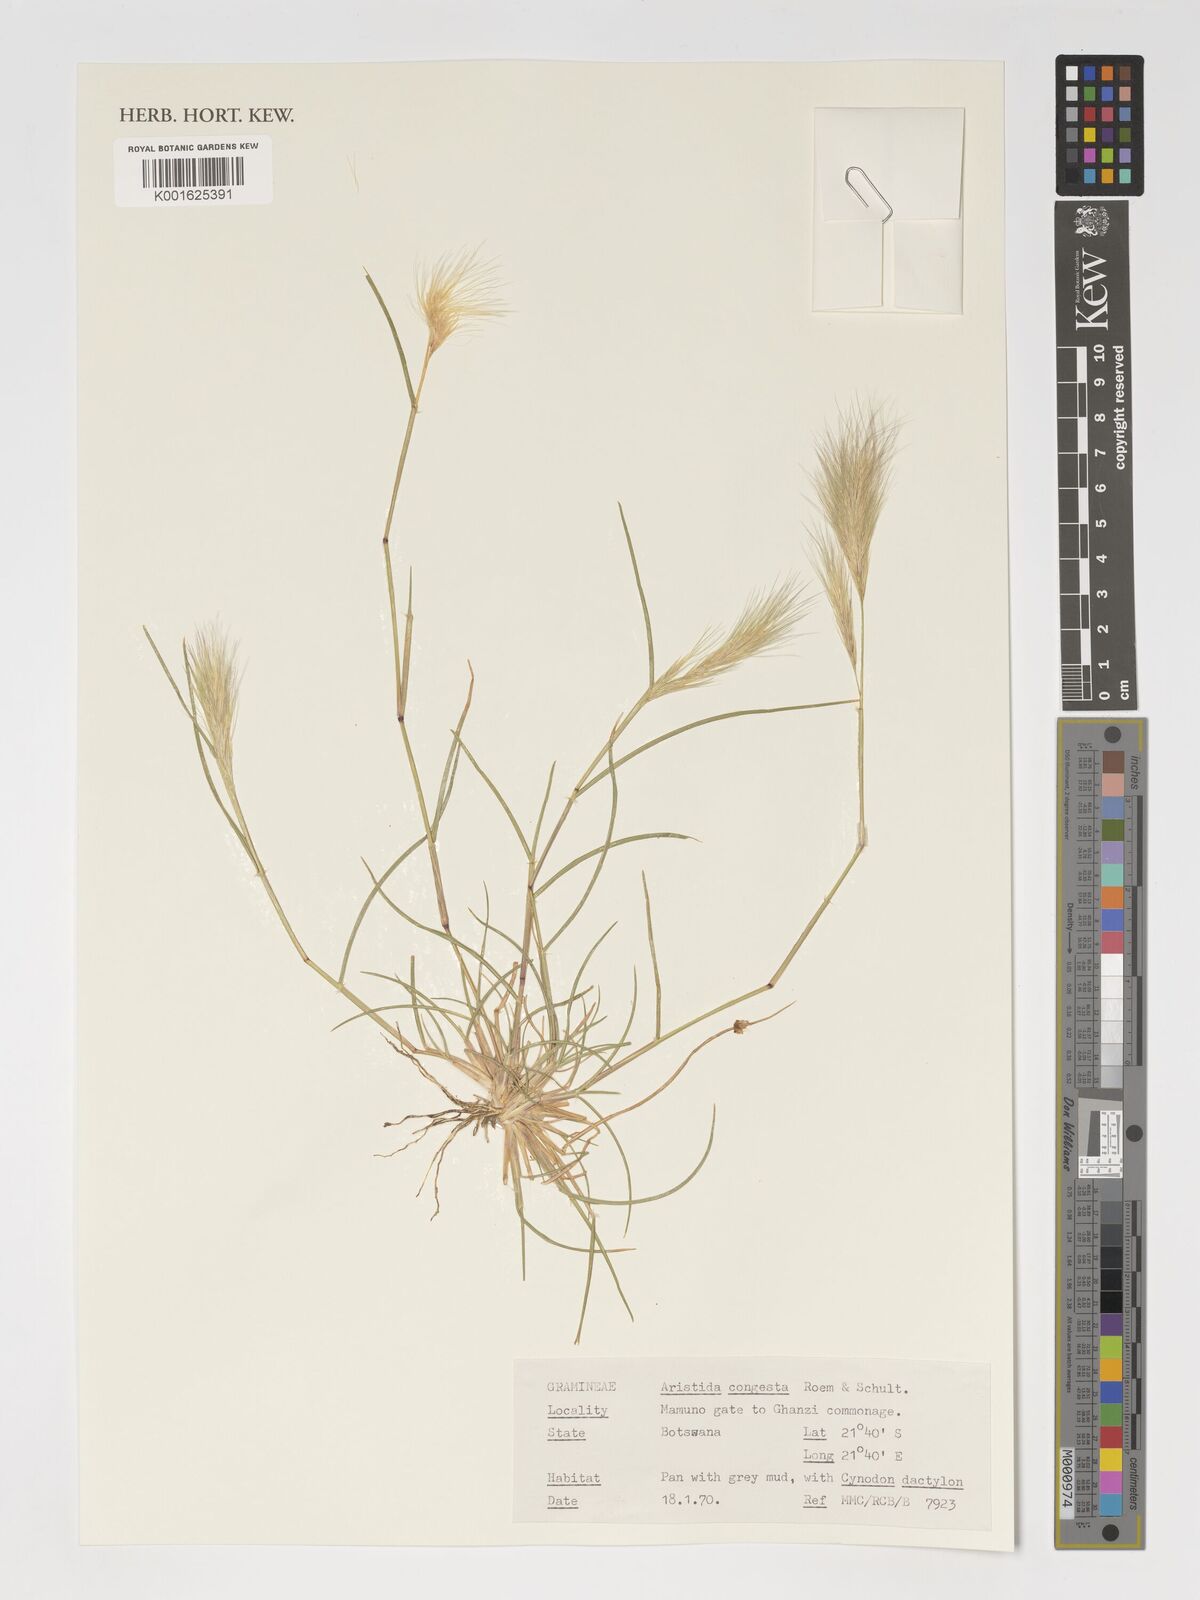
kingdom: Plantae
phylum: Tracheophyta
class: Liliopsida
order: Poales
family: Poaceae
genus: Aristida
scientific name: Aristida congesta
